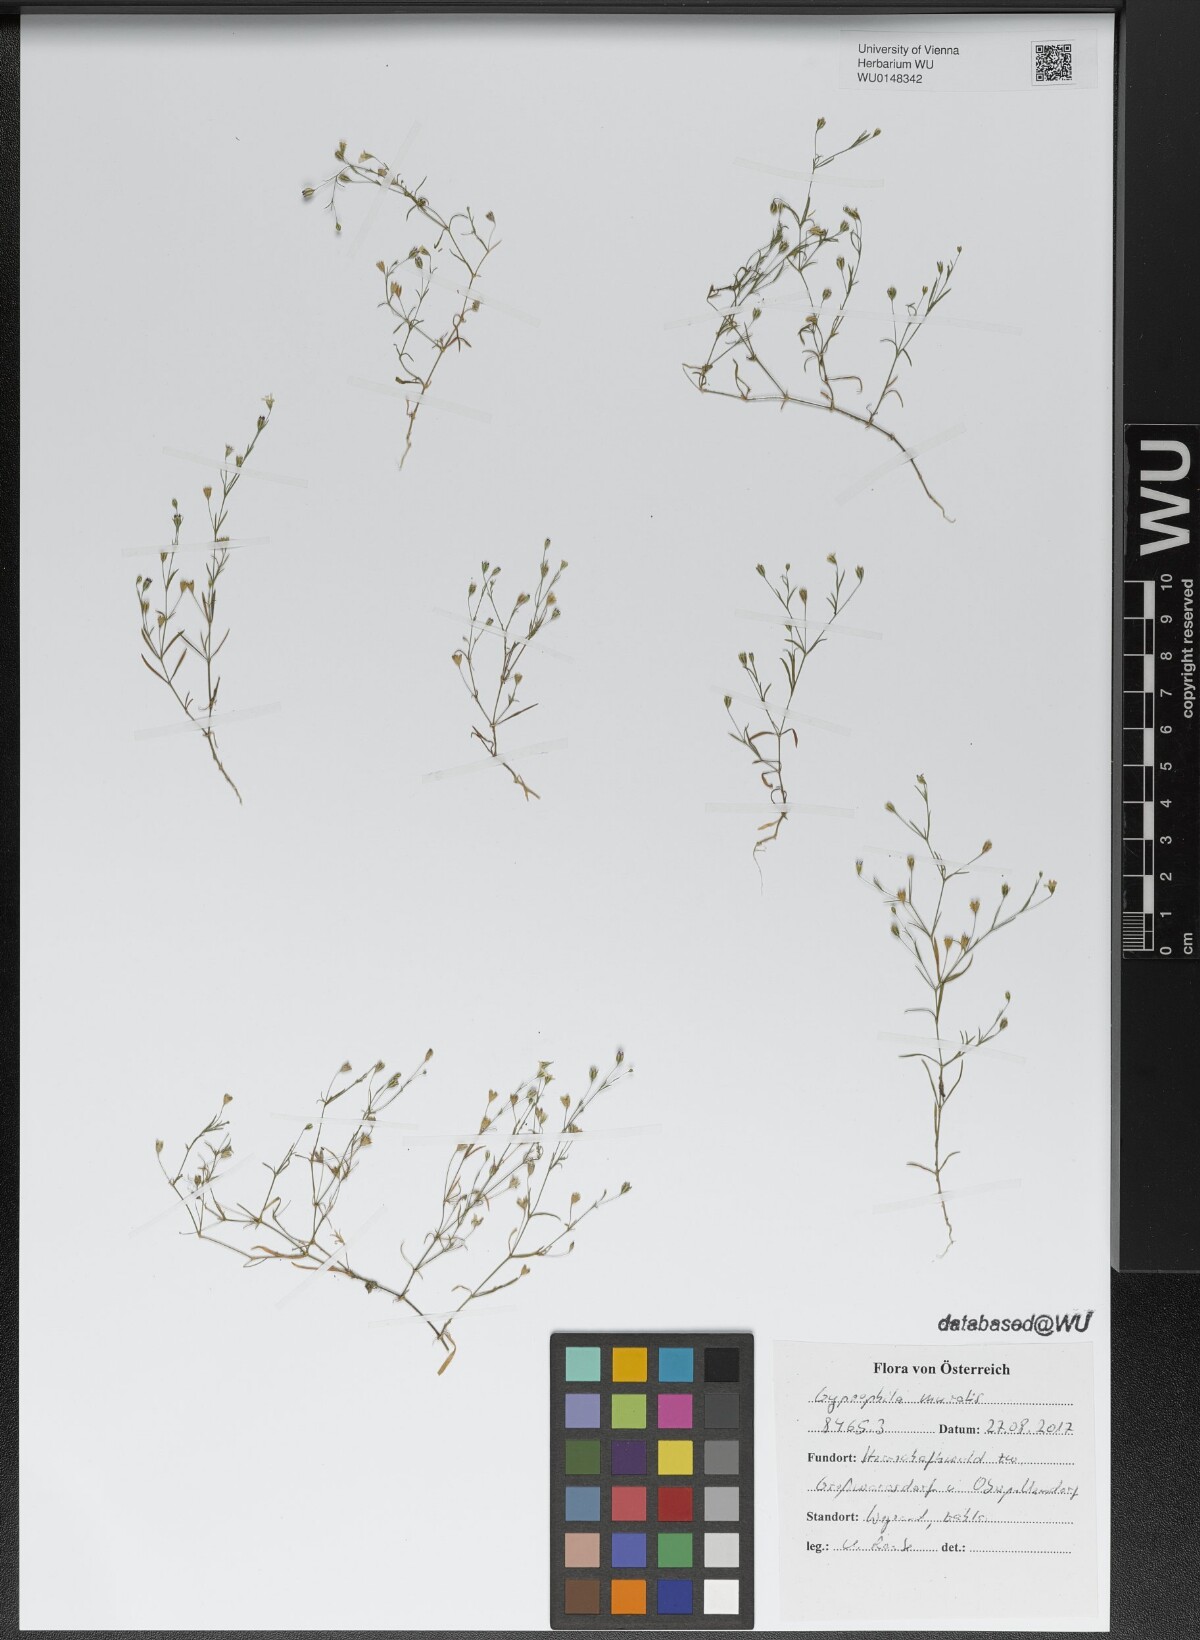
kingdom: Plantae
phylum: Tracheophyta
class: Magnoliopsida
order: Caryophyllales
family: Caryophyllaceae
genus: Psammophiliella
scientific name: Psammophiliella muralis
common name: Cushion baby's-breath
